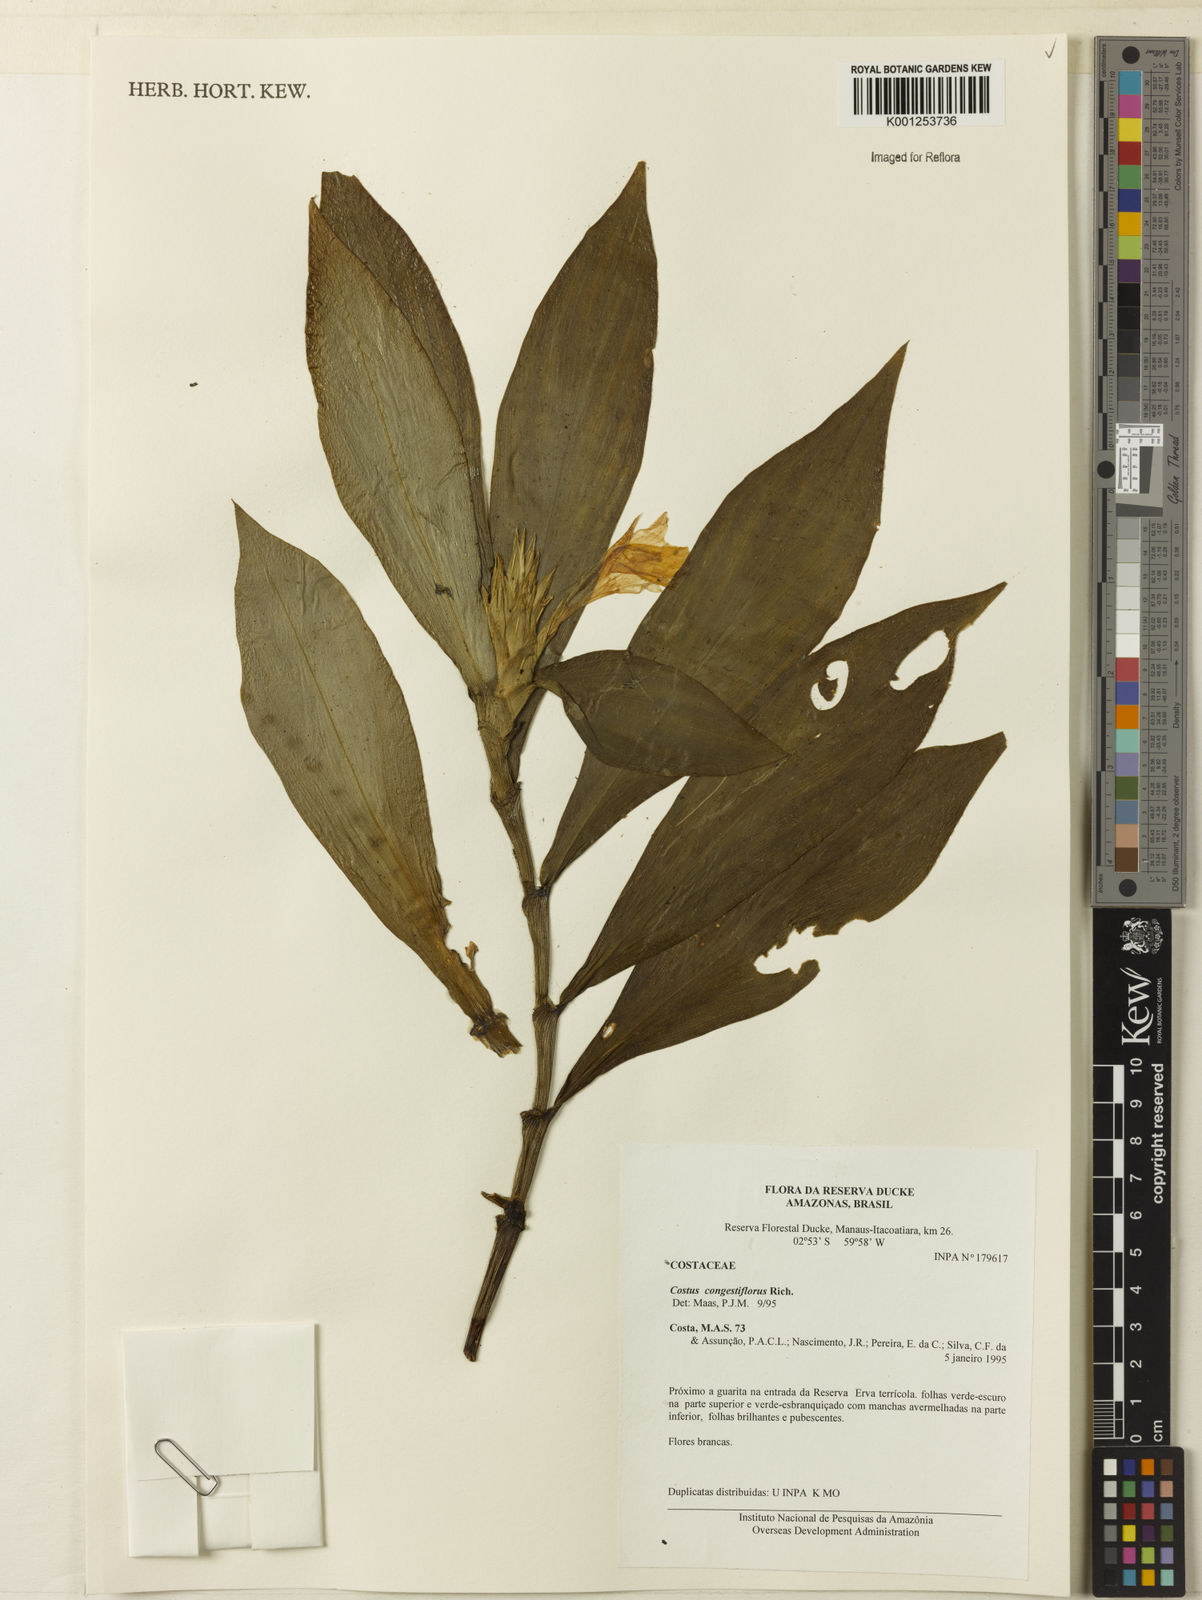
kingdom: Plantae
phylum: Tracheophyta
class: Liliopsida
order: Zingiberales
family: Costaceae
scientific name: Costaceae
